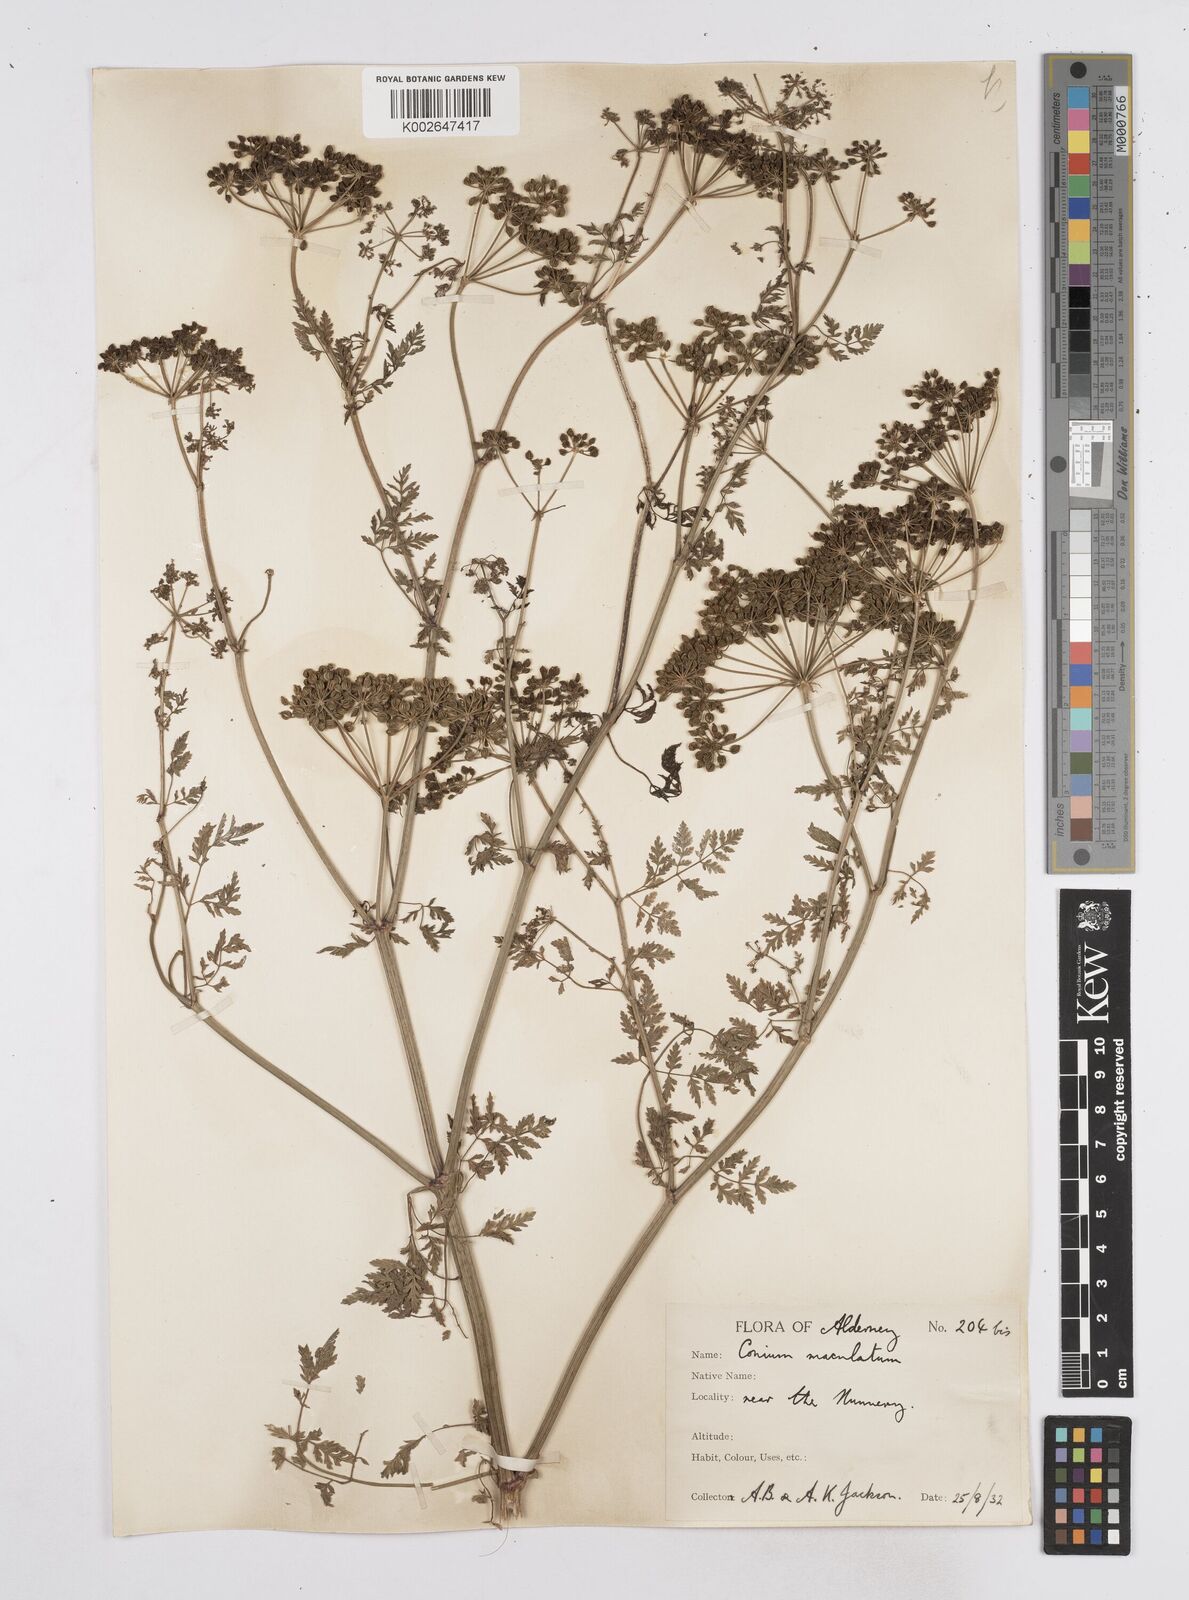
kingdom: Plantae
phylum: Tracheophyta
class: Magnoliopsida
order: Apiales
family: Apiaceae
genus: Conium
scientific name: Conium maculatum
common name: Hemlock
